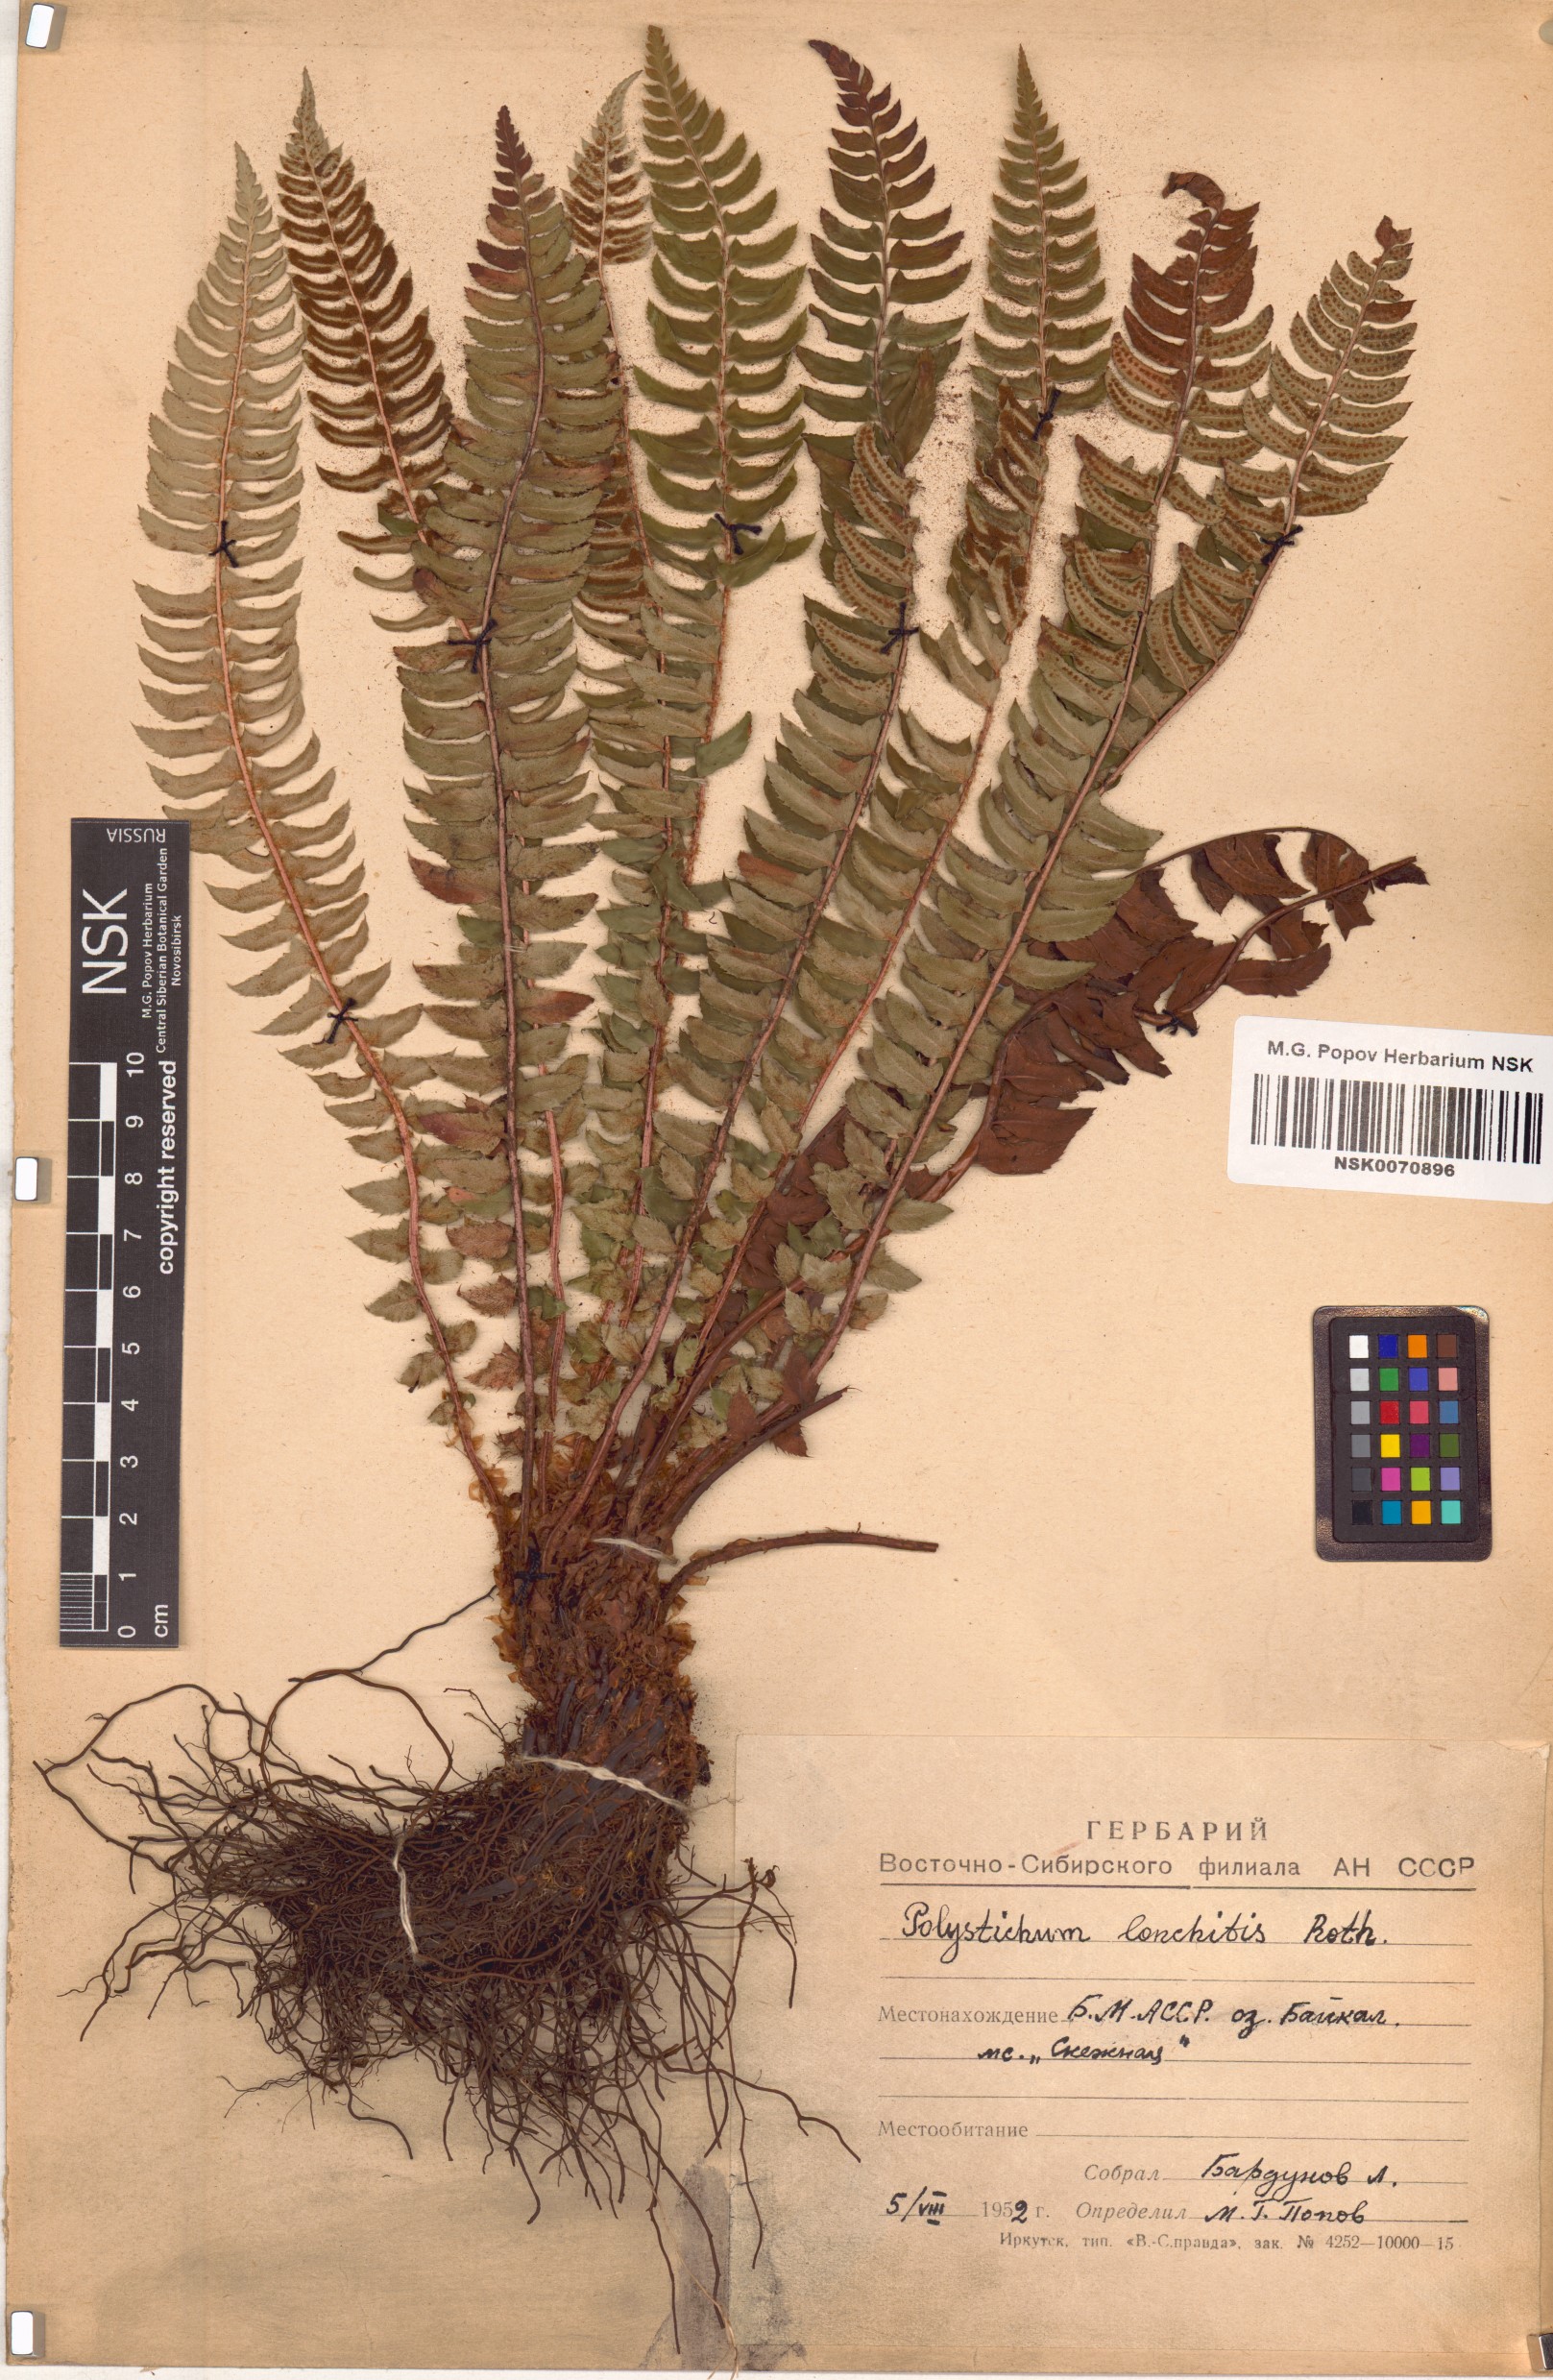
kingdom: Plantae
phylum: Tracheophyta
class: Polypodiopsida
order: Polypodiales
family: Dryopteridaceae
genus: Polystichum
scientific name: Polystichum lonchitis
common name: Holly fern
